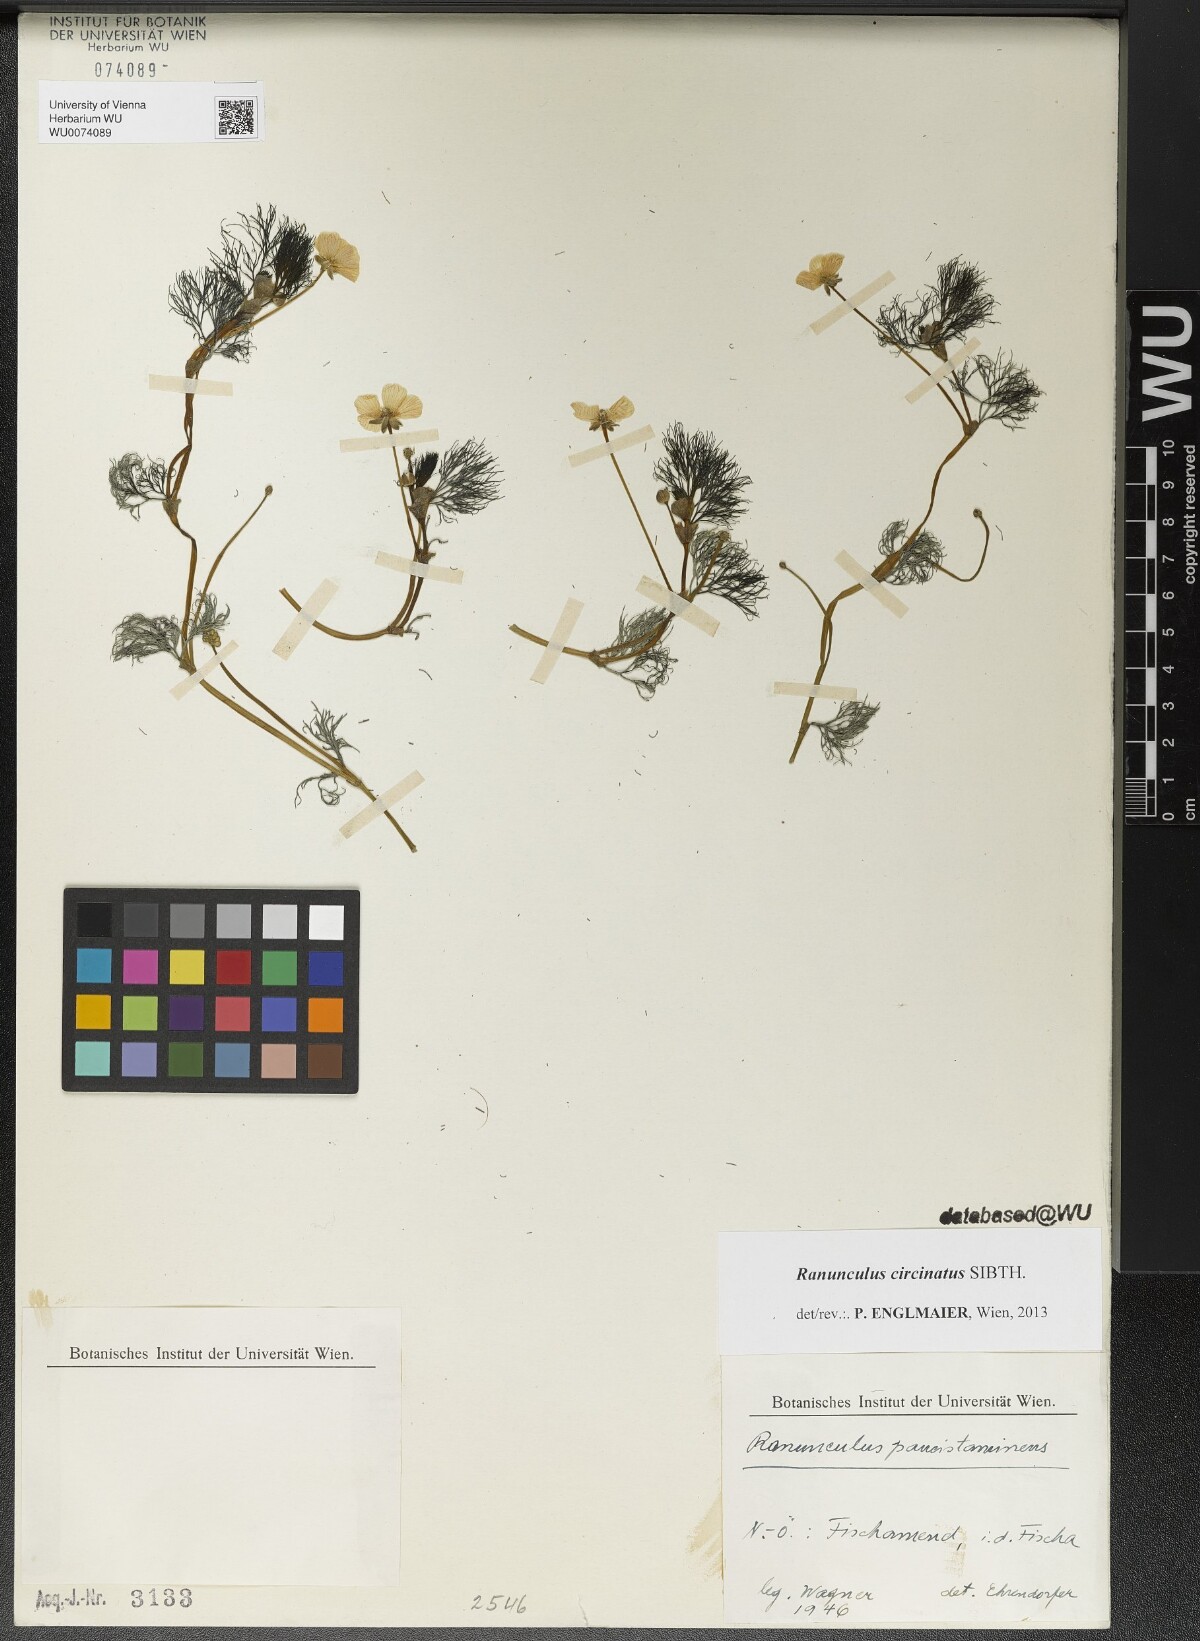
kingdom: Plantae
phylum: Tracheophyta
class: Magnoliopsida
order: Ranunculales
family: Ranunculaceae
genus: Ranunculus
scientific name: Ranunculus circinatus
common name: Fan-leaved water-crowfoot
